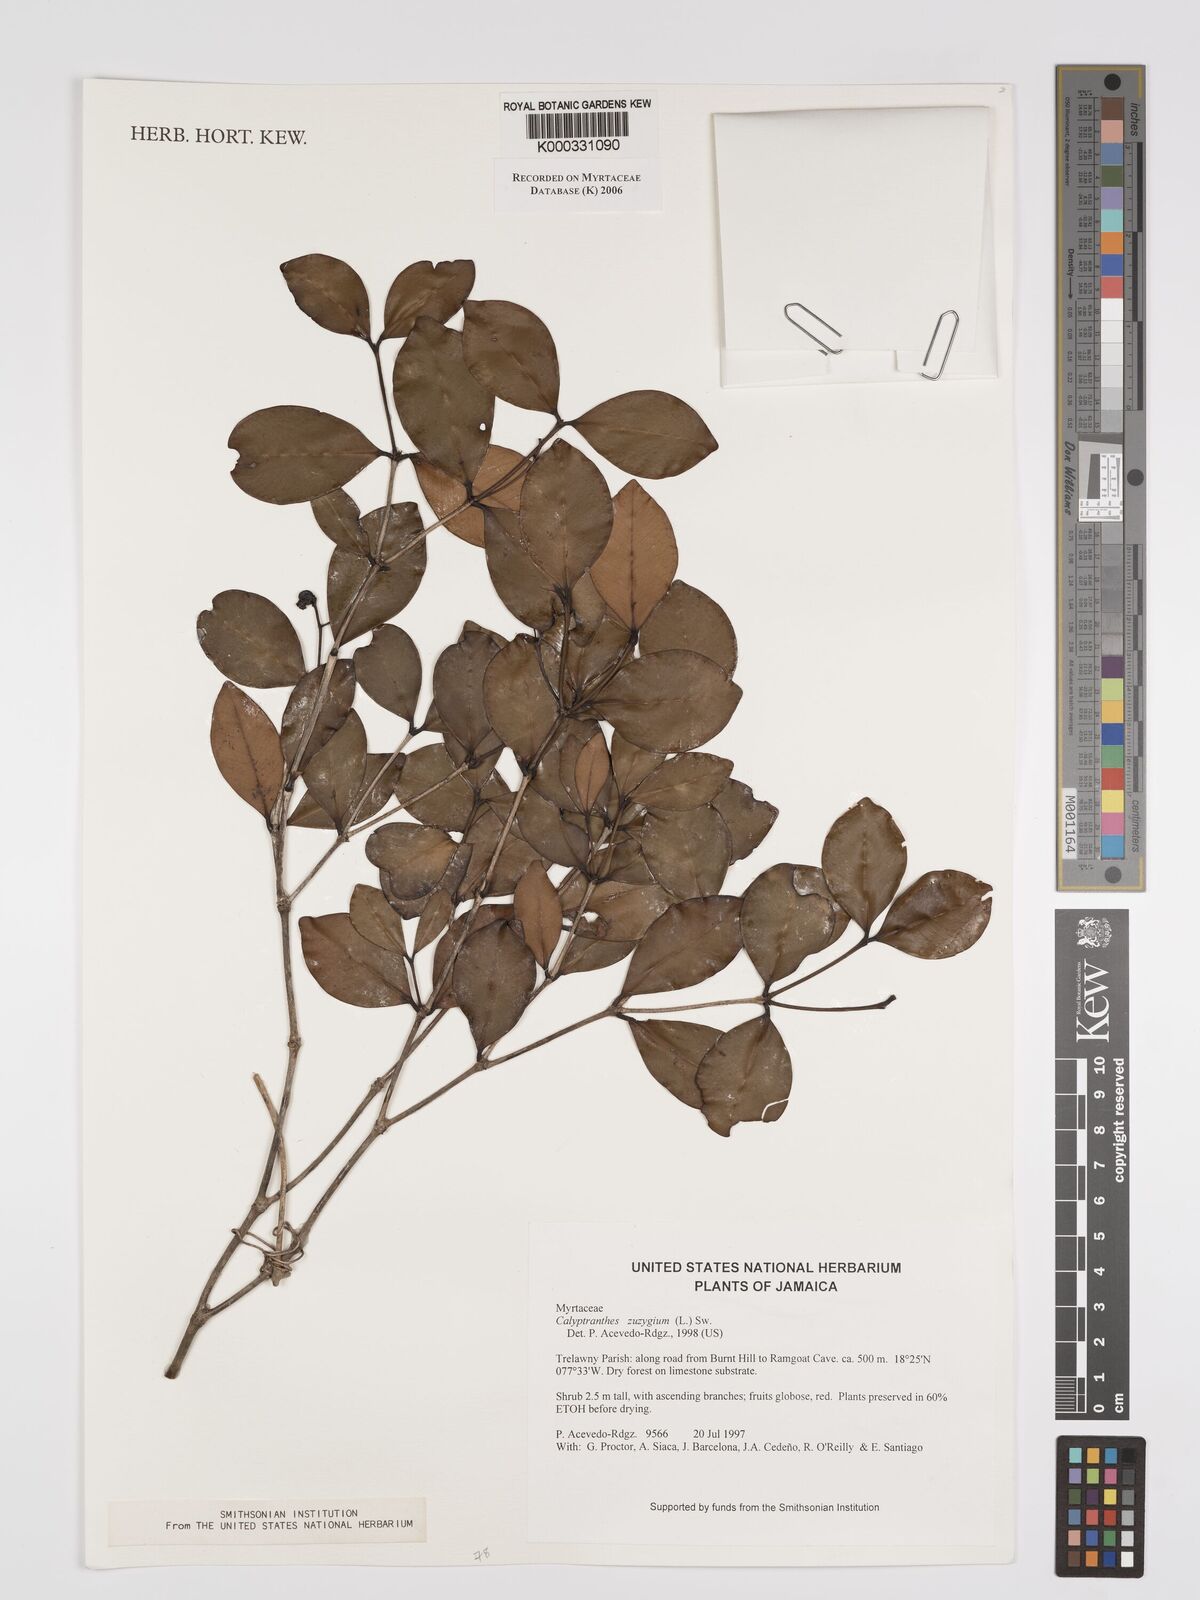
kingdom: Plantae
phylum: Tracheophyta
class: Magnoliopsida
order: Myrtales
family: Myrtaceae
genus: Myrcia
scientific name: Myrcia chytraculia
